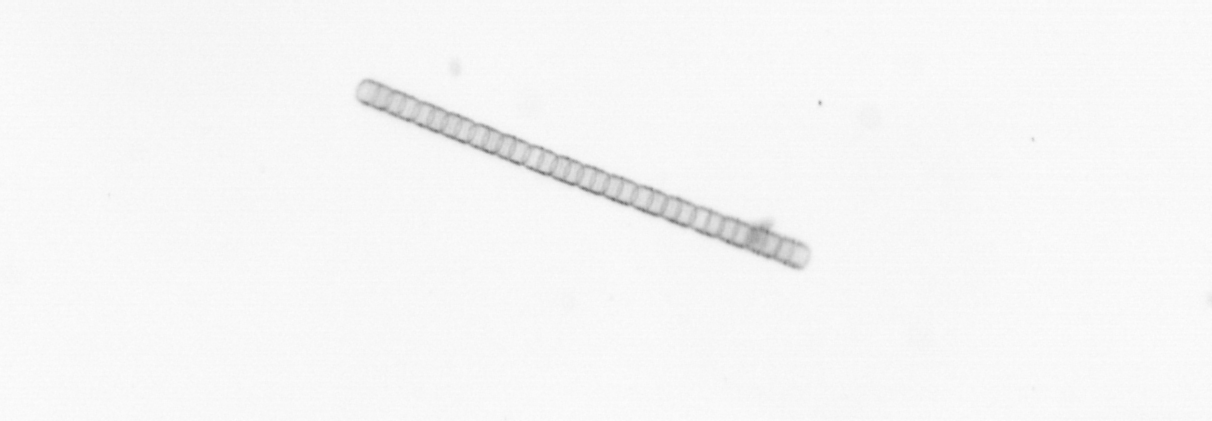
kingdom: Chromista
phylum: Ochrophyta
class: Bacillariophyceae
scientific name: Bacillariophyceae
